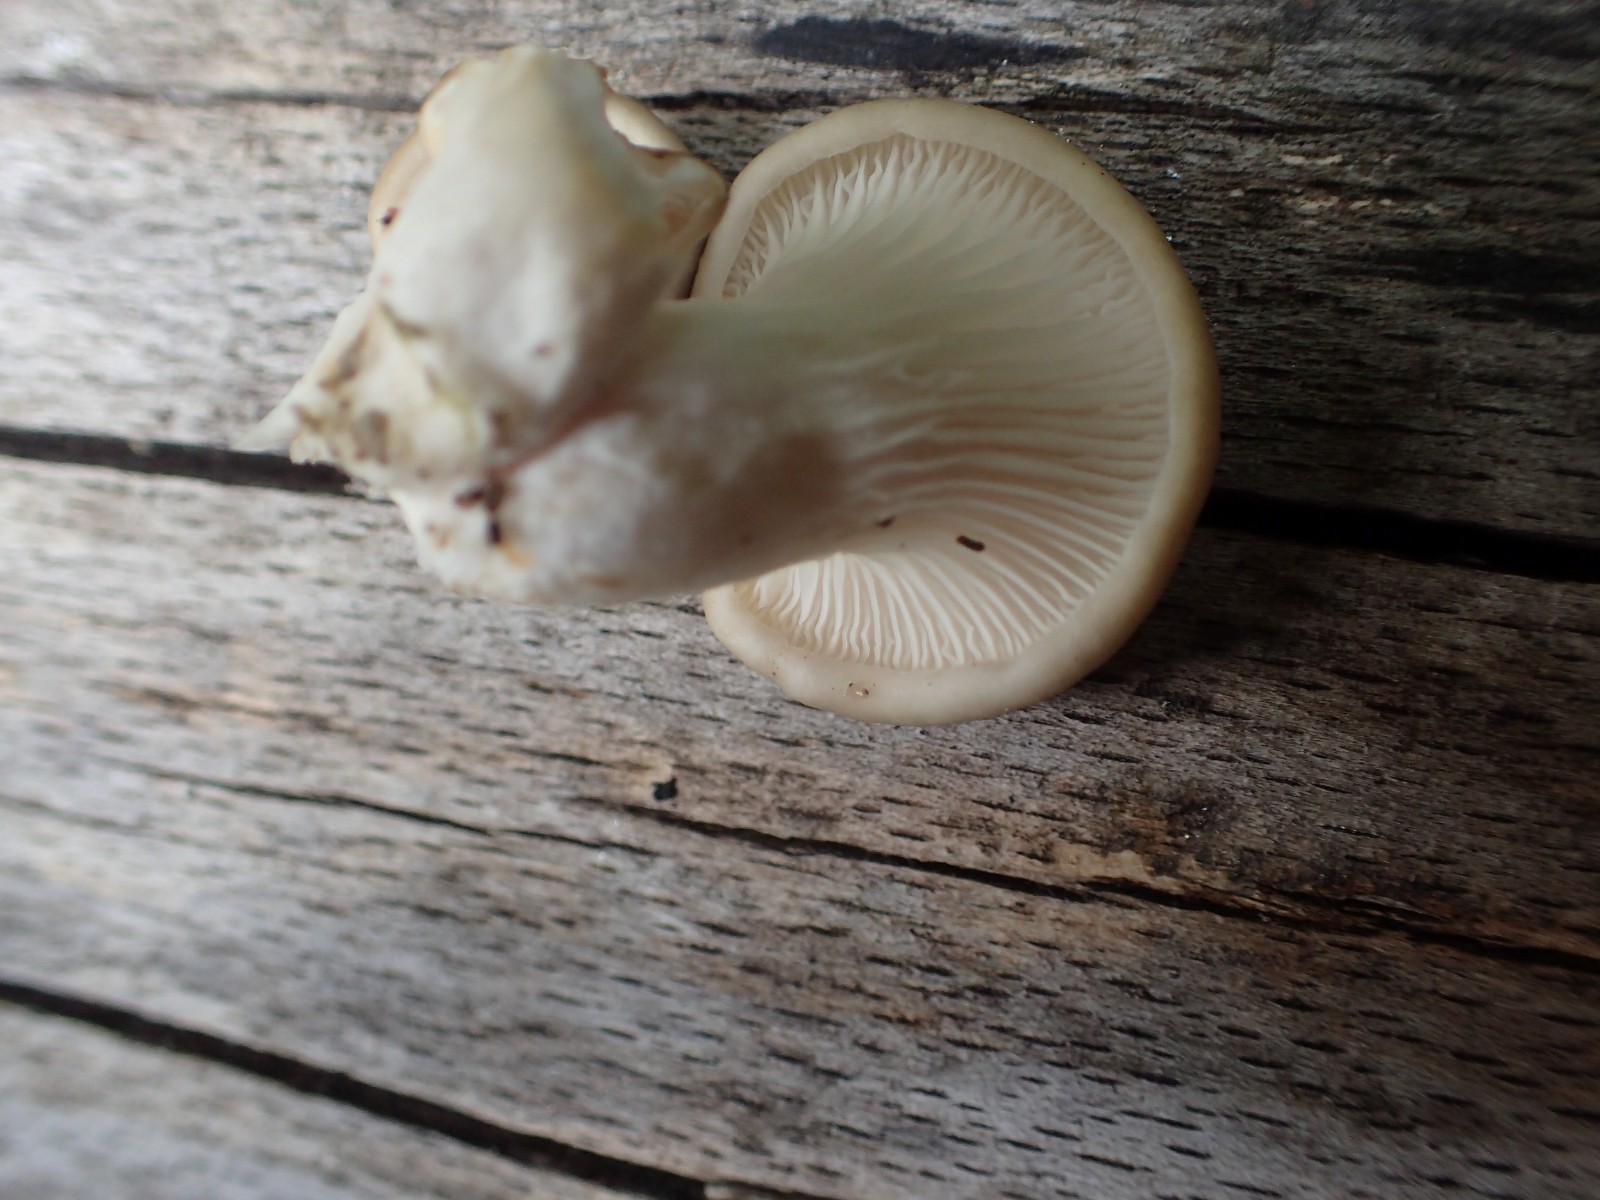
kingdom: Fungi
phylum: Basidiomycota
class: Agaricomycetes
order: Agaricales
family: Pleurotaceae
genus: Pleurotus
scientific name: Pleurotus pulmonarius
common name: sommer-østershat
